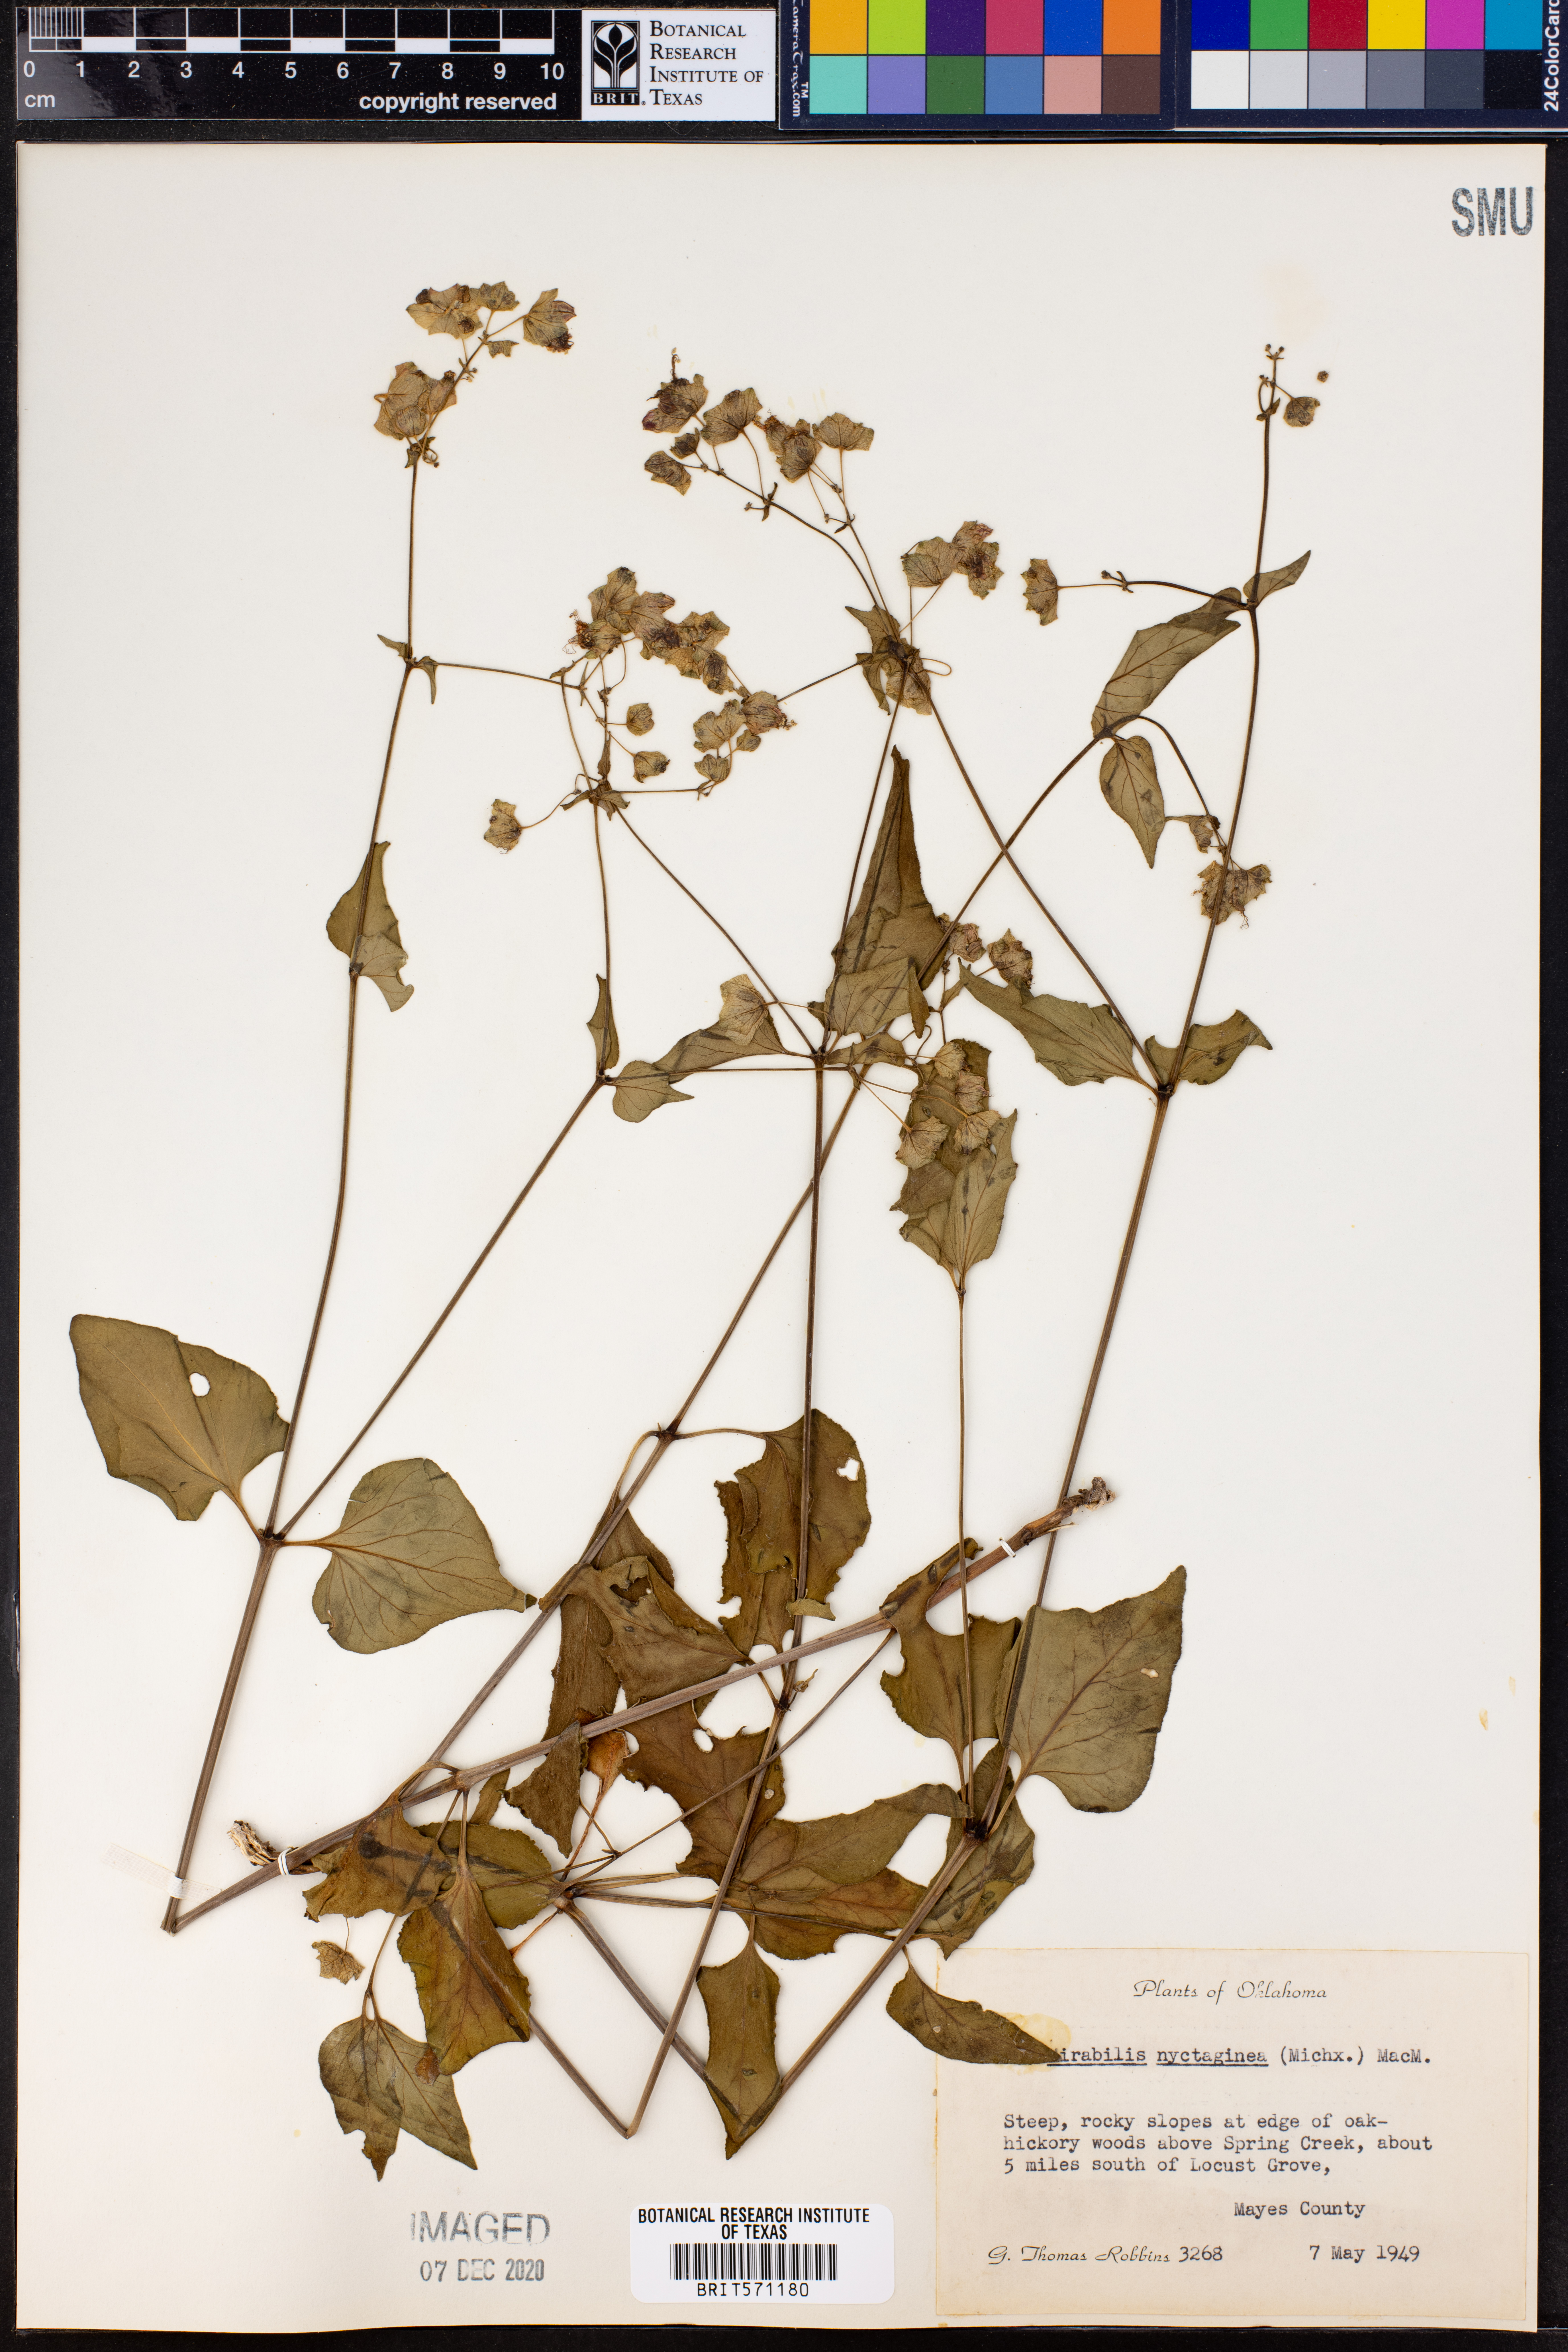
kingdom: Plantae
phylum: Tracheophyta
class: Magnoliopsida
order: Caryophyllales
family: Nyctaginaceae
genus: Mirabilis
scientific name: Mirabilis nyctaginea
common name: Umbrella wort
